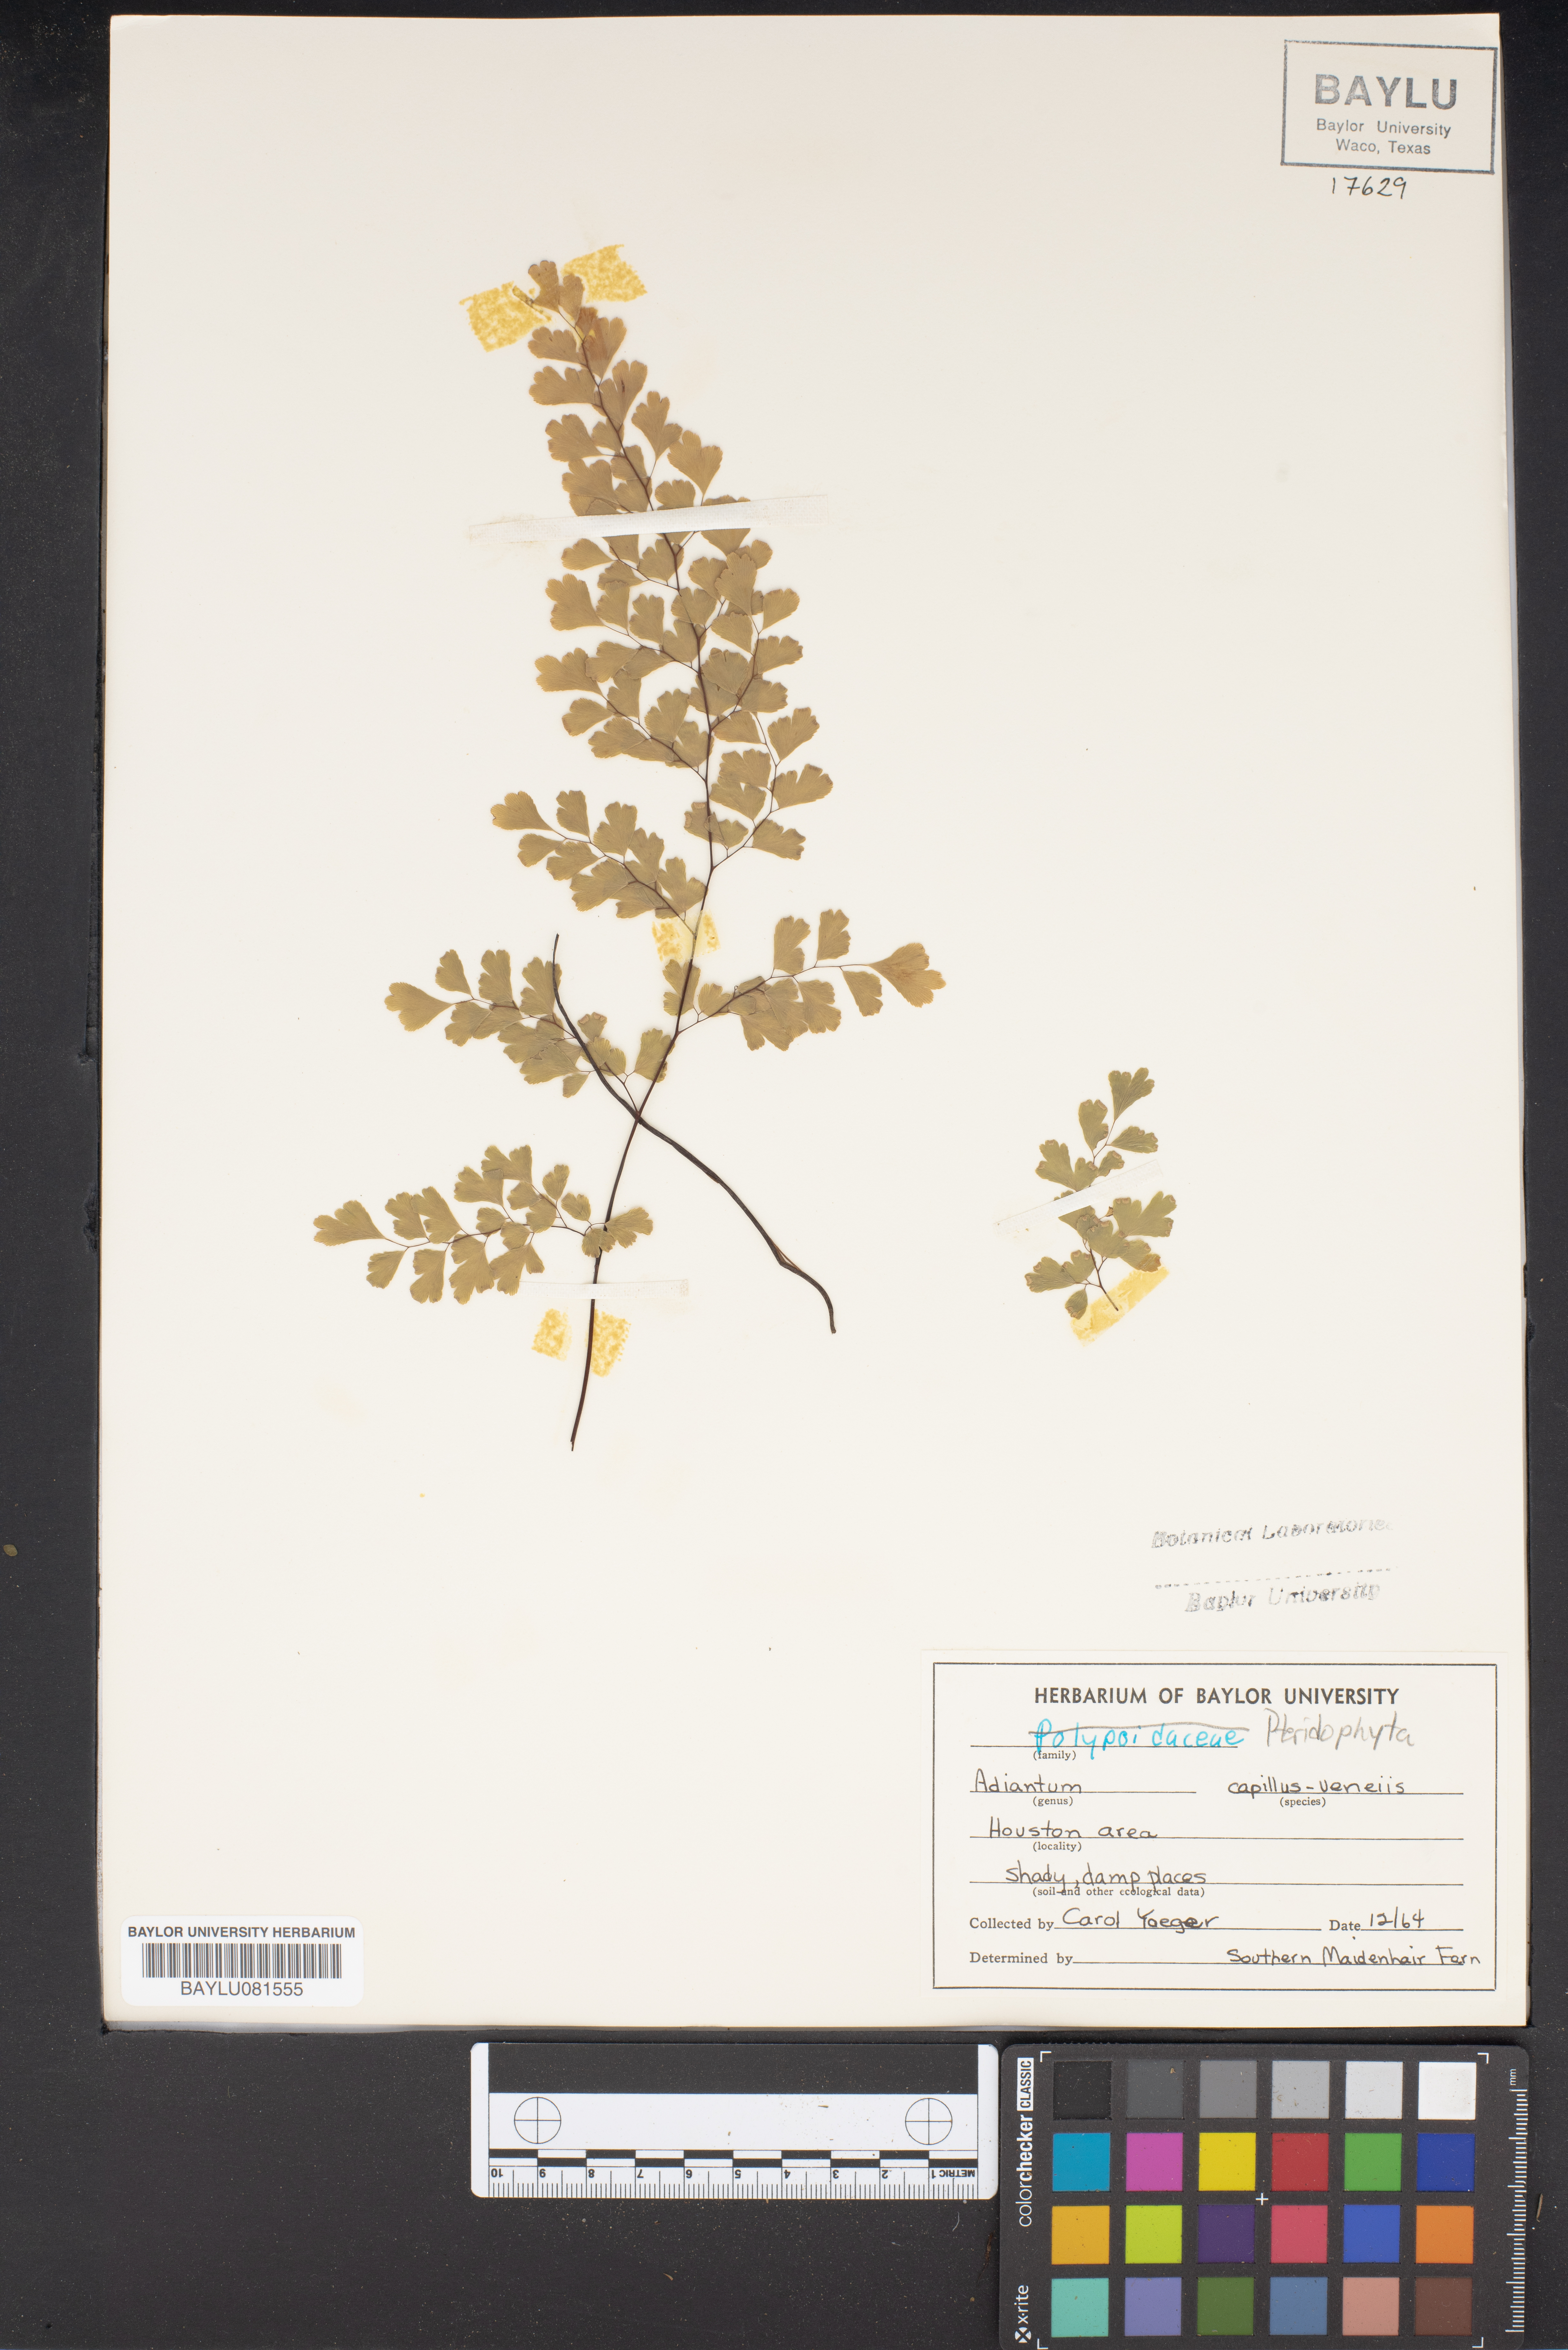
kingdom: Plantae
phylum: Tracheophyta
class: Polypodiopsida
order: Polypodiales
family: Pteridaceae
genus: Adiantum
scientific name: Adiantum capillus-veneris
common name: Maidenhair fern
